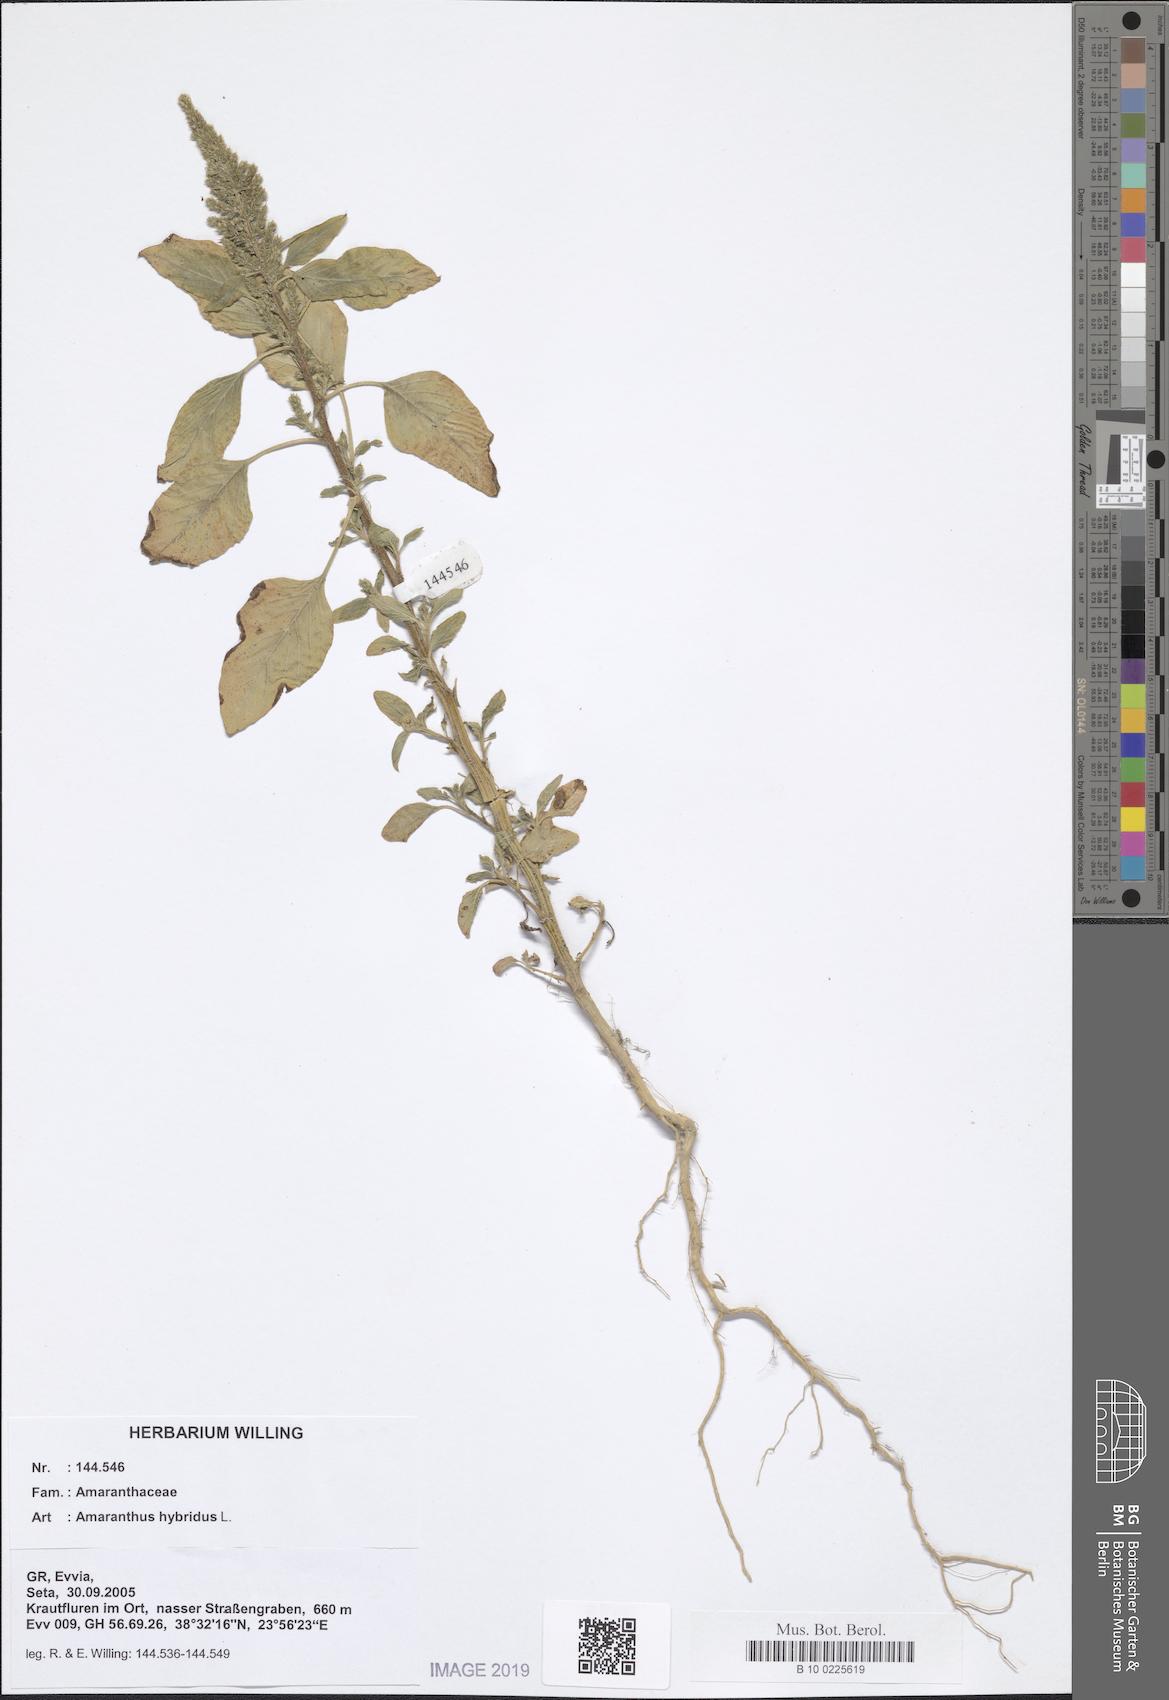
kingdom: Plantae
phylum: Tracheophyta
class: Magnoliopsida
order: Caryophyllales
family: Amaranthaceae
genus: Amaranthus
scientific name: Amaranthus hybridus
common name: Green amaranth
